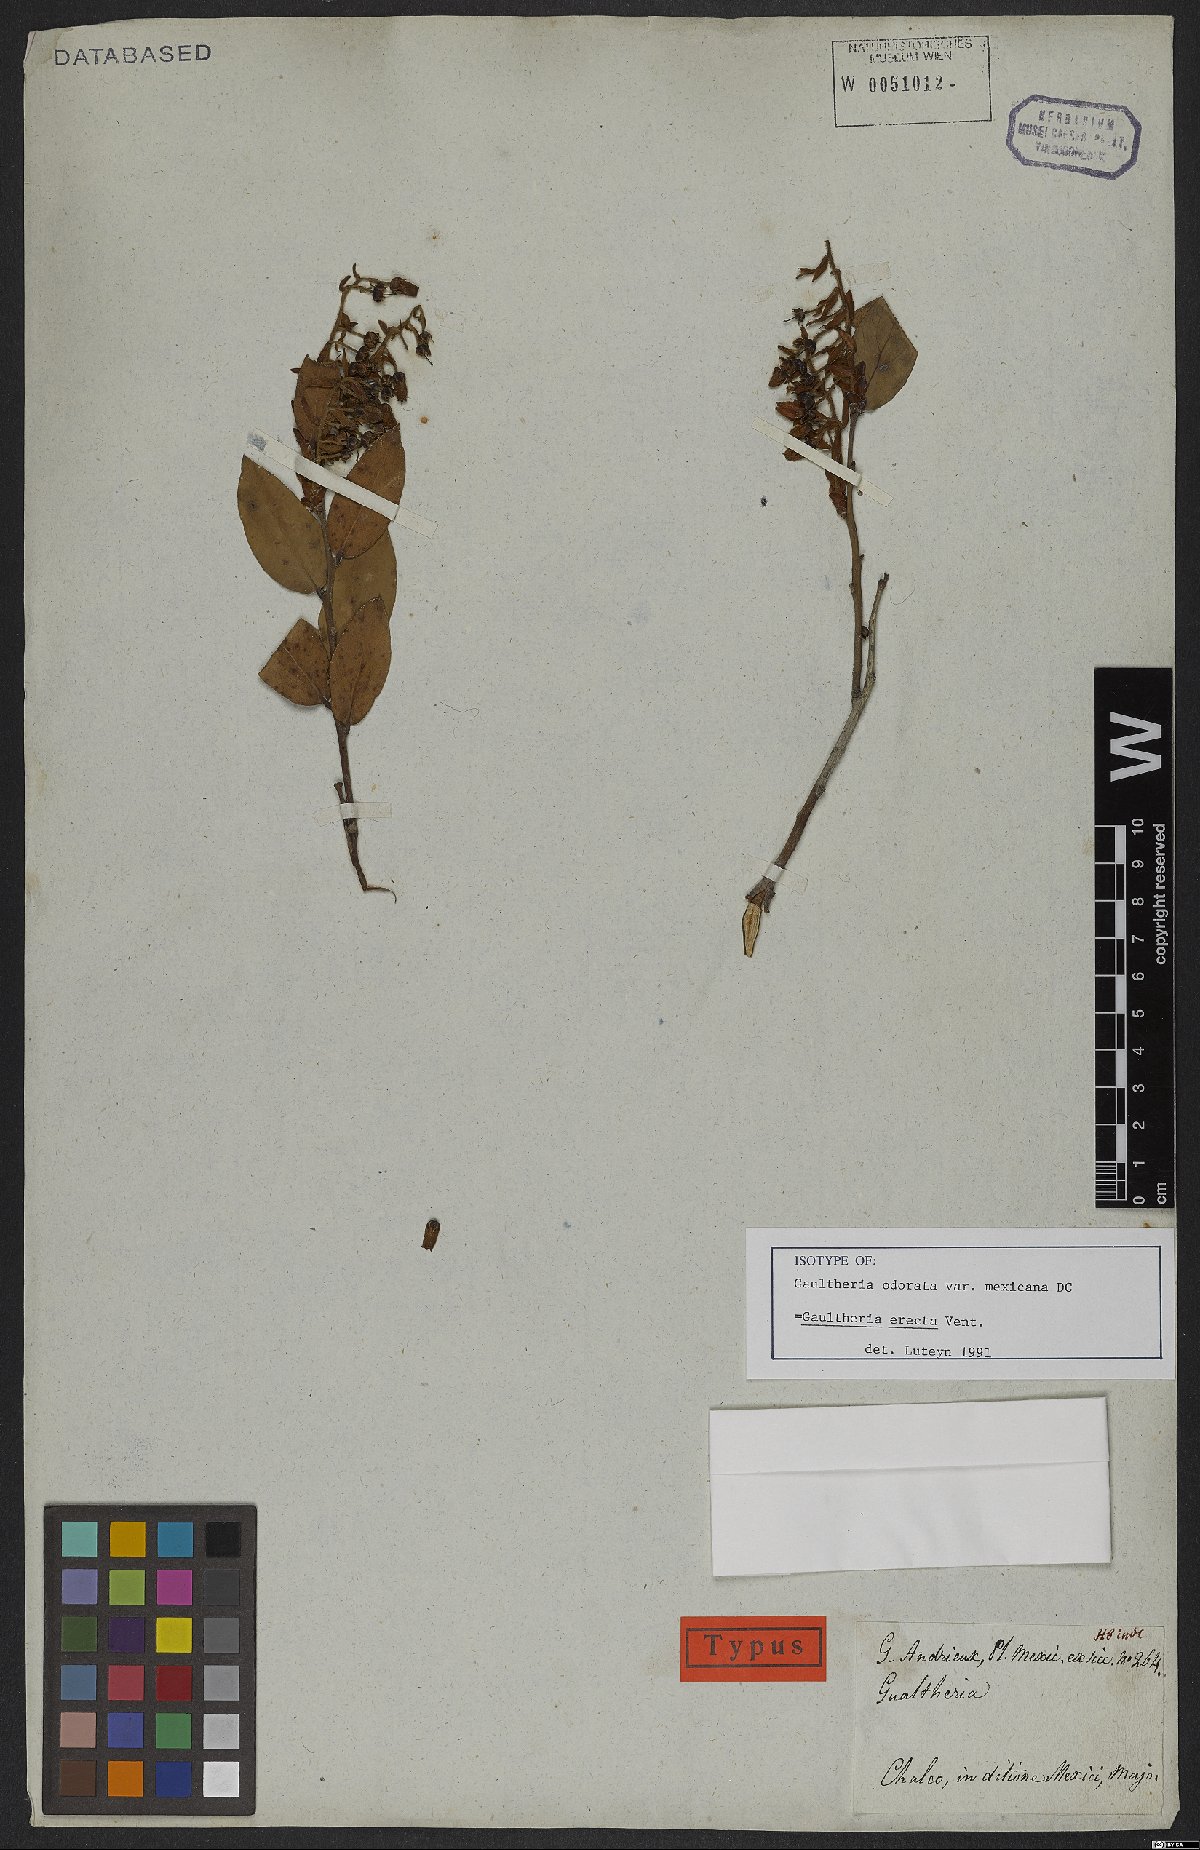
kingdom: Plantae
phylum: Tracheophyta
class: Magnoliopsida
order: Ericales
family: Ericaceae
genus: Gaultheria
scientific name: Gaultheria erecta
